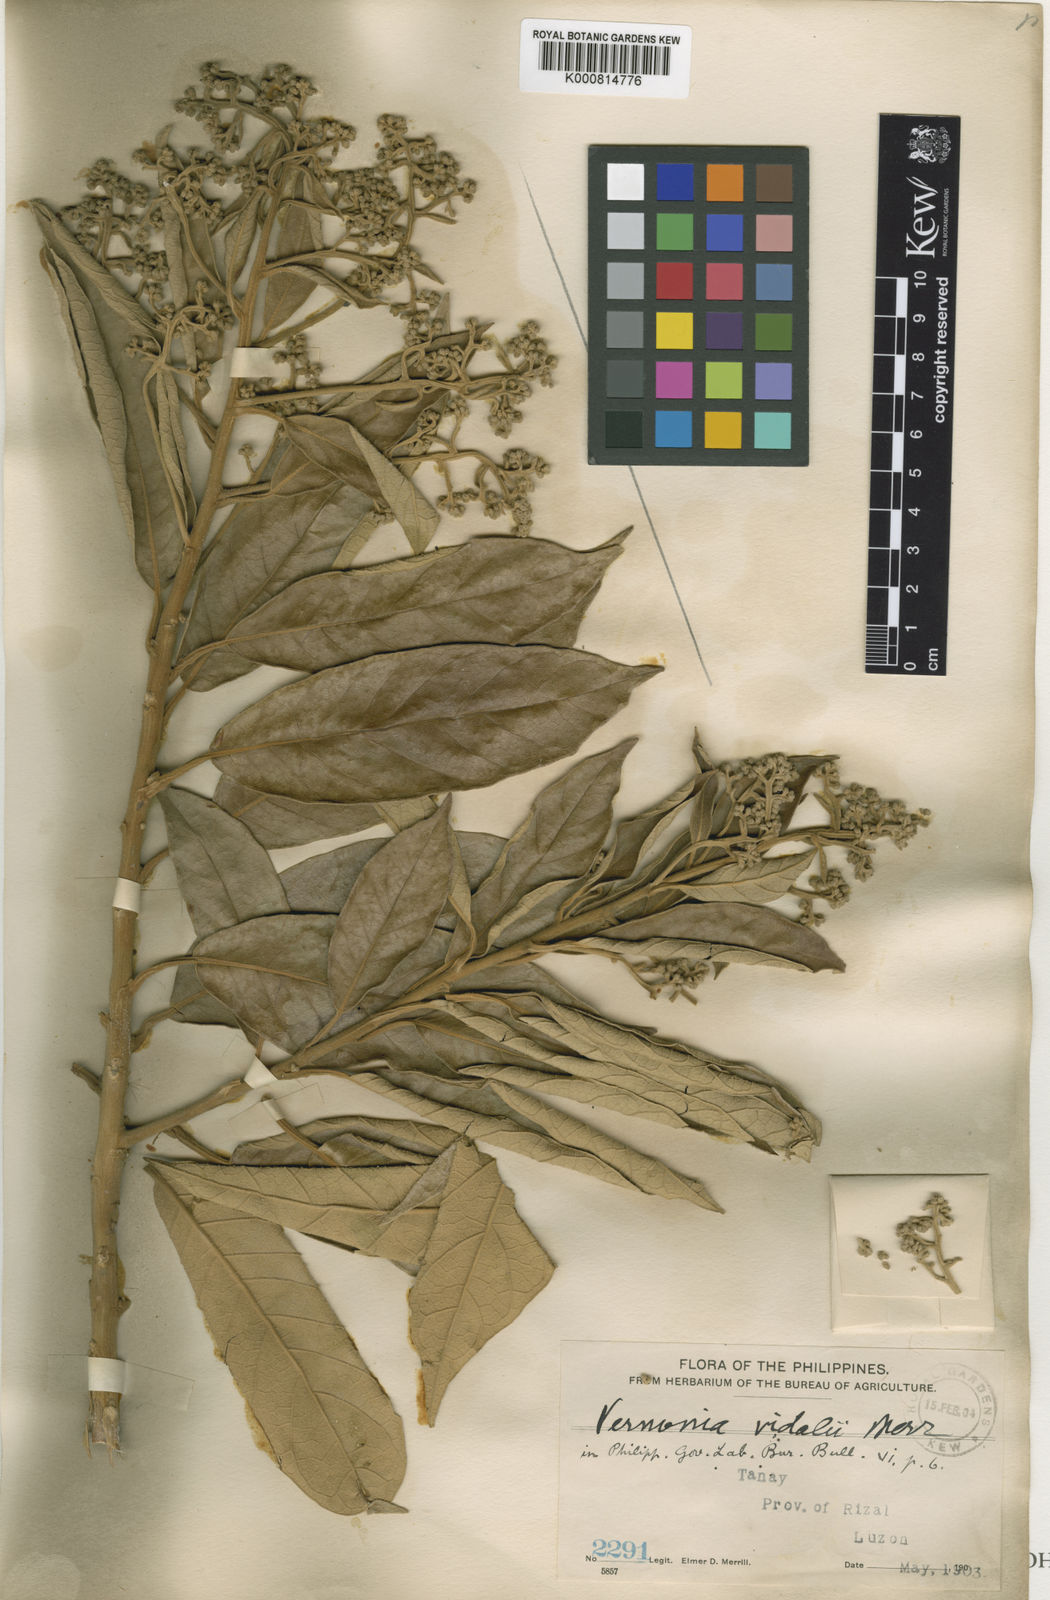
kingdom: Plantae
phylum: Tracheophyta
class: Magnoliopsida
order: Asterales
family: Asteraceae
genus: Strobocalyx
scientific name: Strobocalyx vidalii
